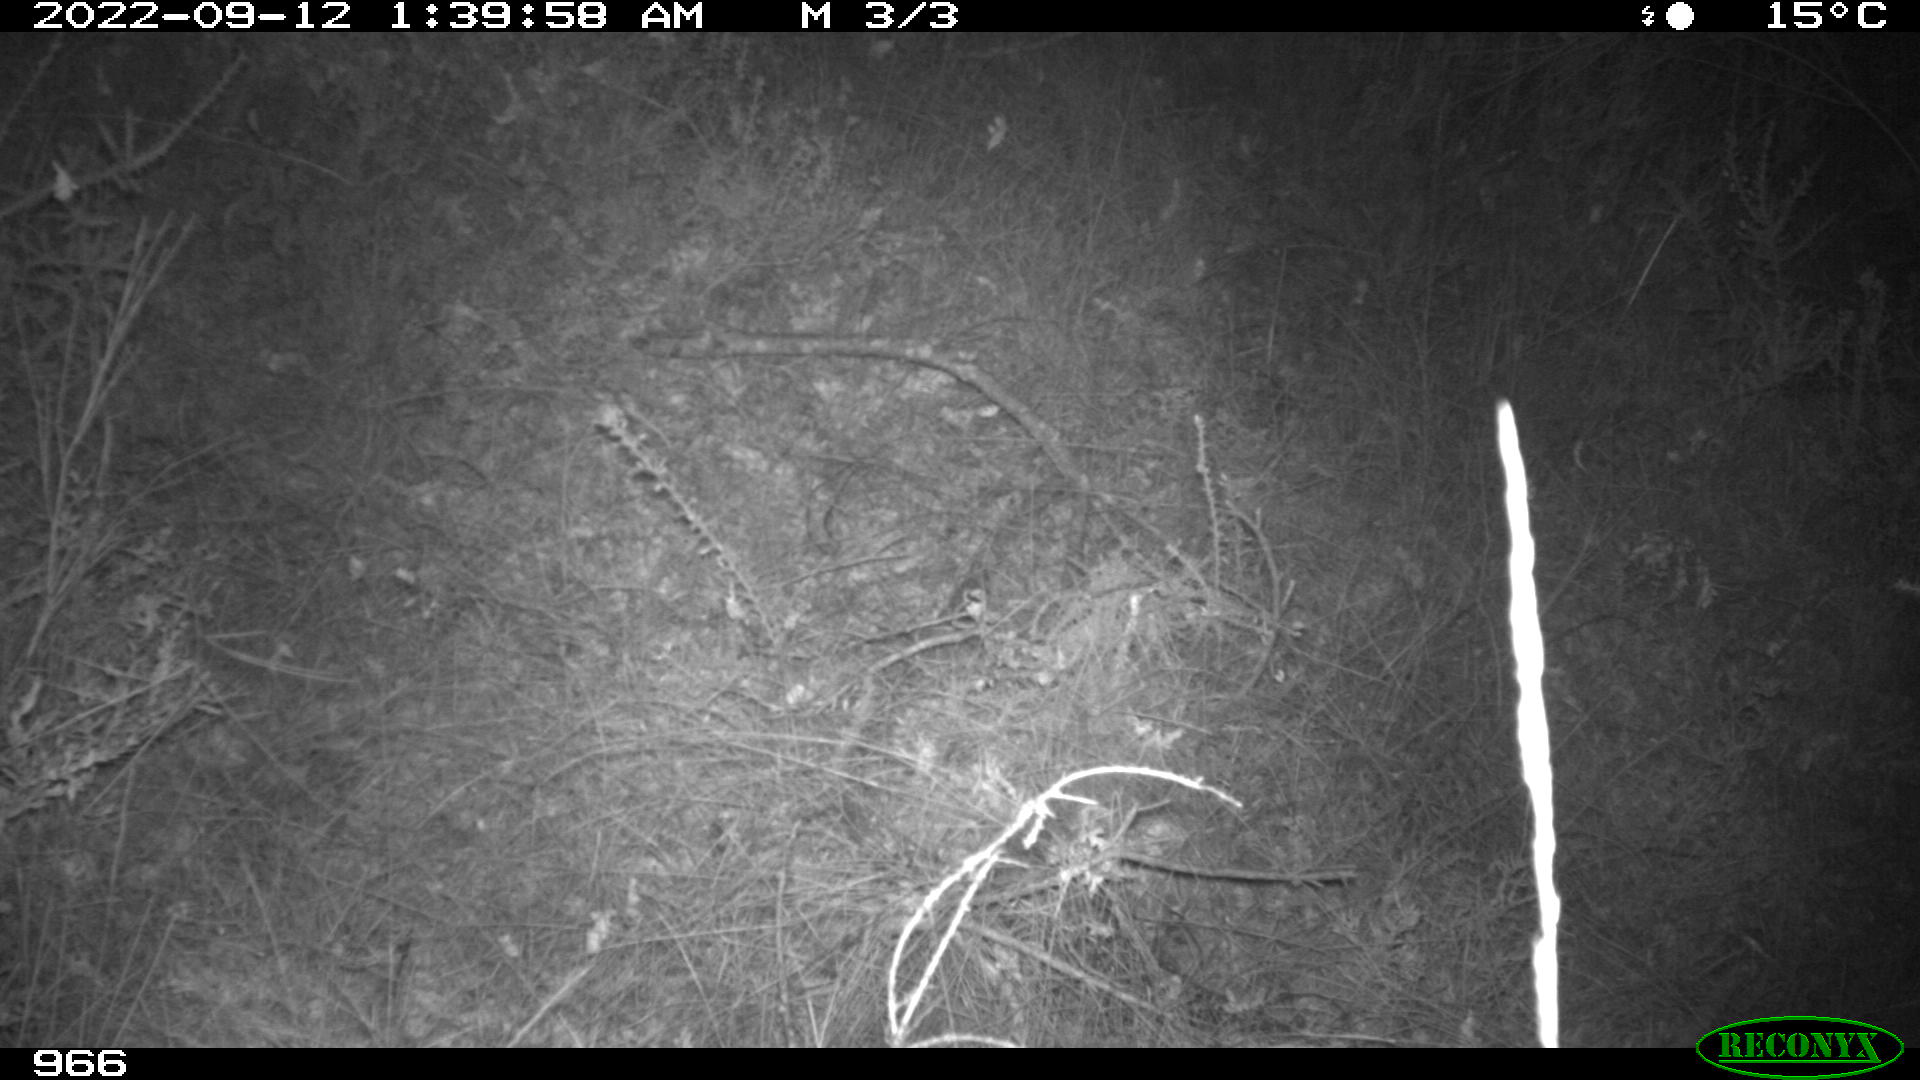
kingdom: Animalia
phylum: Chordata
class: Mammalia
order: Artiodactyla
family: Suidae
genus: Sus
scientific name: Sus scrofa
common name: Wild boar
